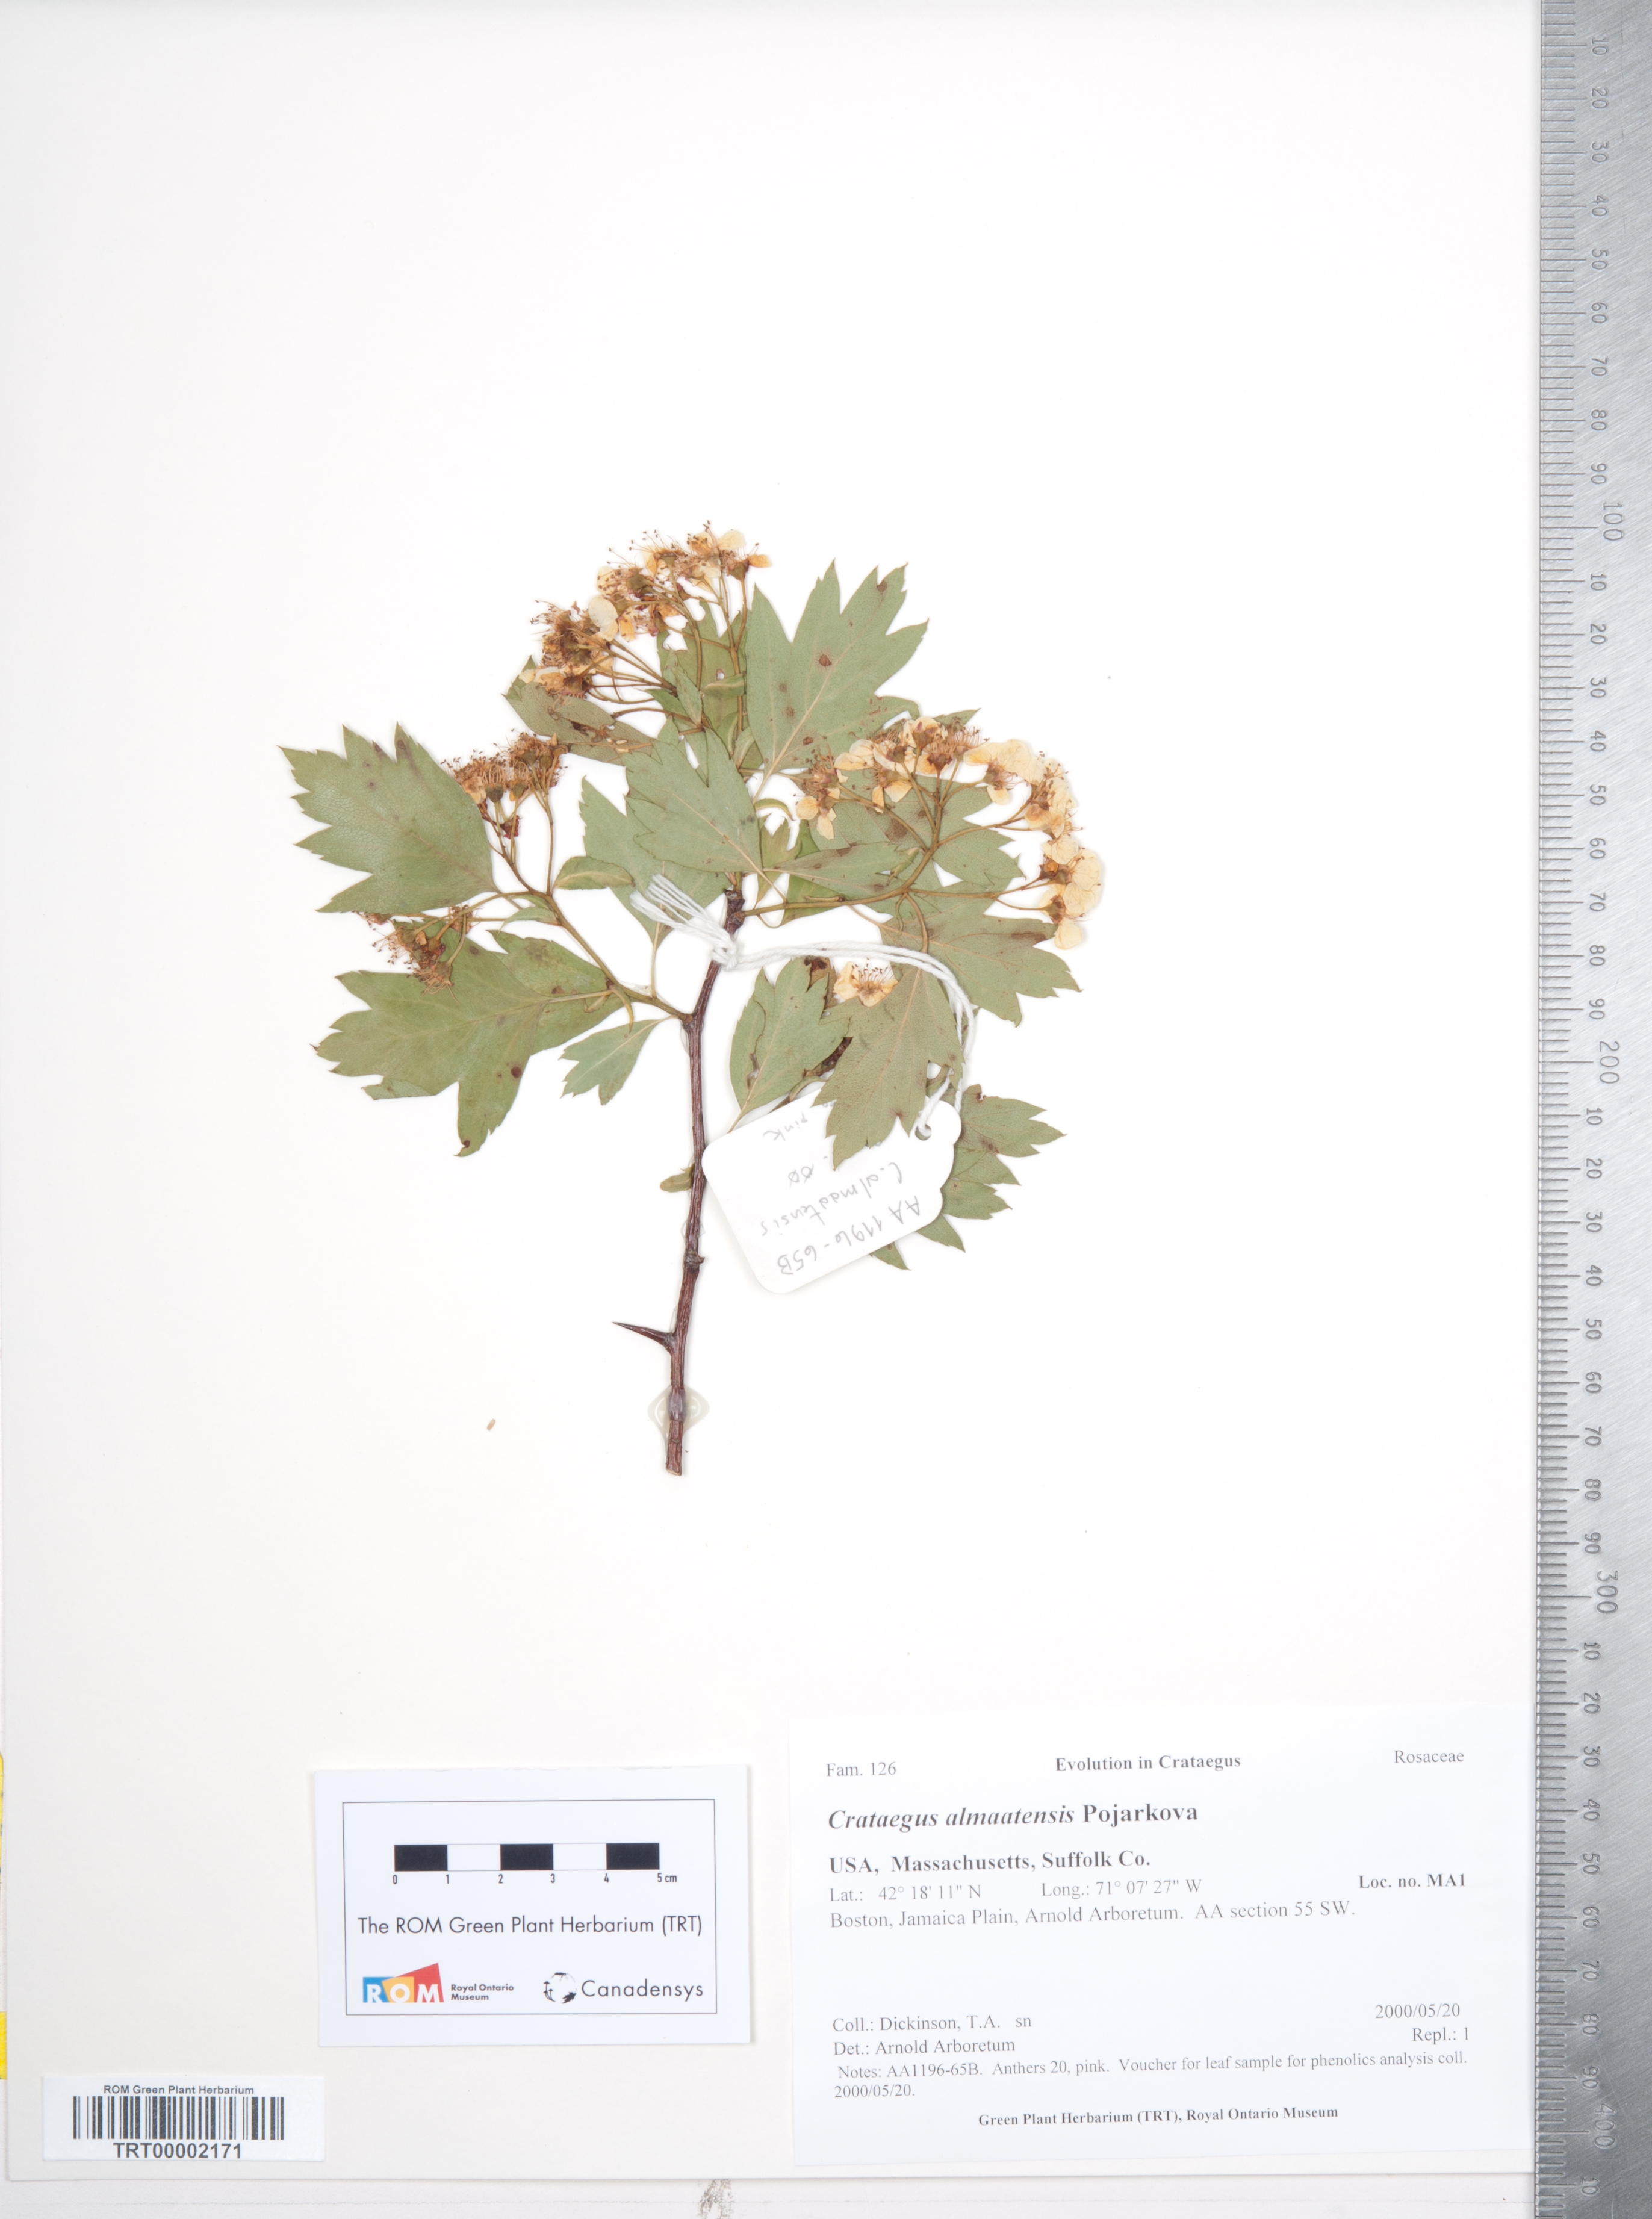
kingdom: Plantae
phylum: Tracheophyta
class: Magnoliopsida
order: Rosales
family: Rosaceae
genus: Crataegus
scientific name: Crataegus dsungarica
